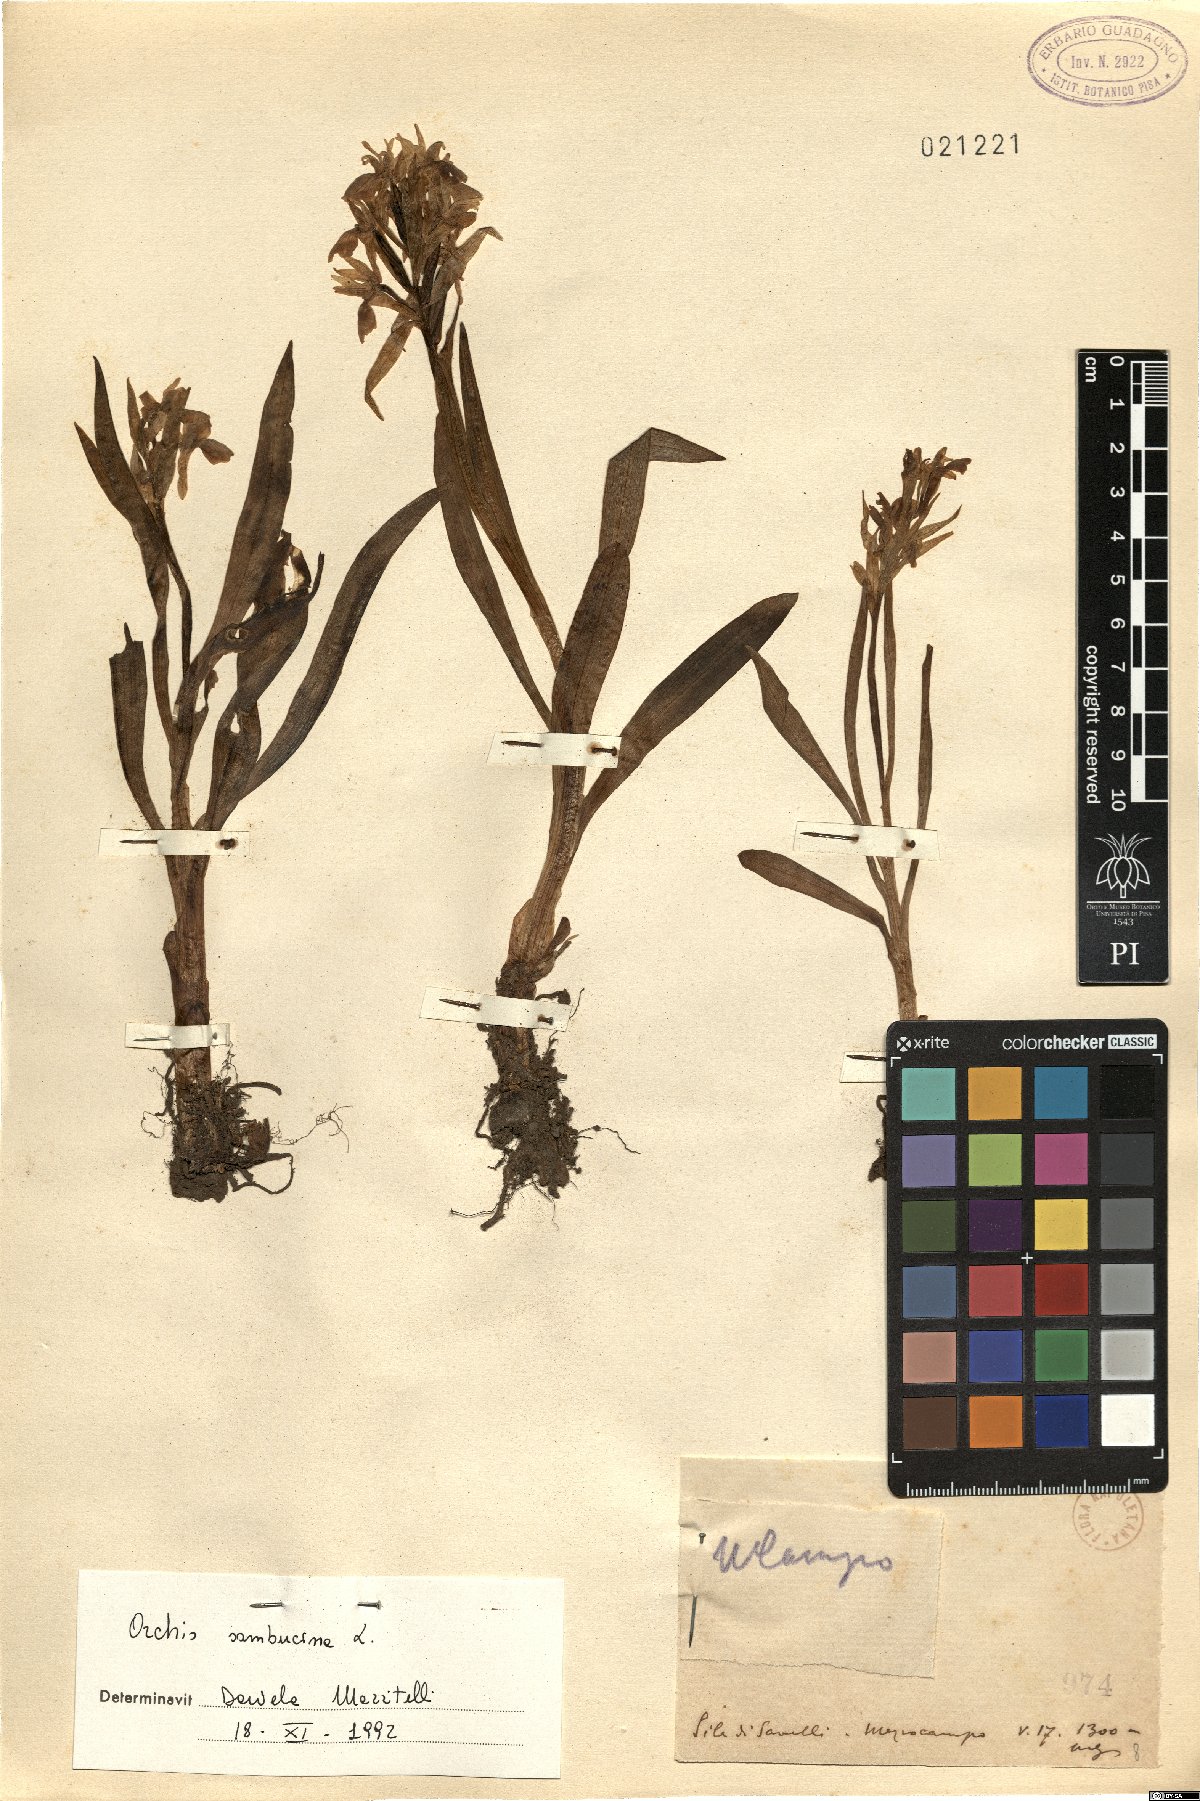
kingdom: Plantae
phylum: Tracheophyta
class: Liliopsida
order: Asparagales
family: Orchidaceae
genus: Dactylorhiza
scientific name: Dactylorhiza sambucina
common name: Elder-flowered orchid
